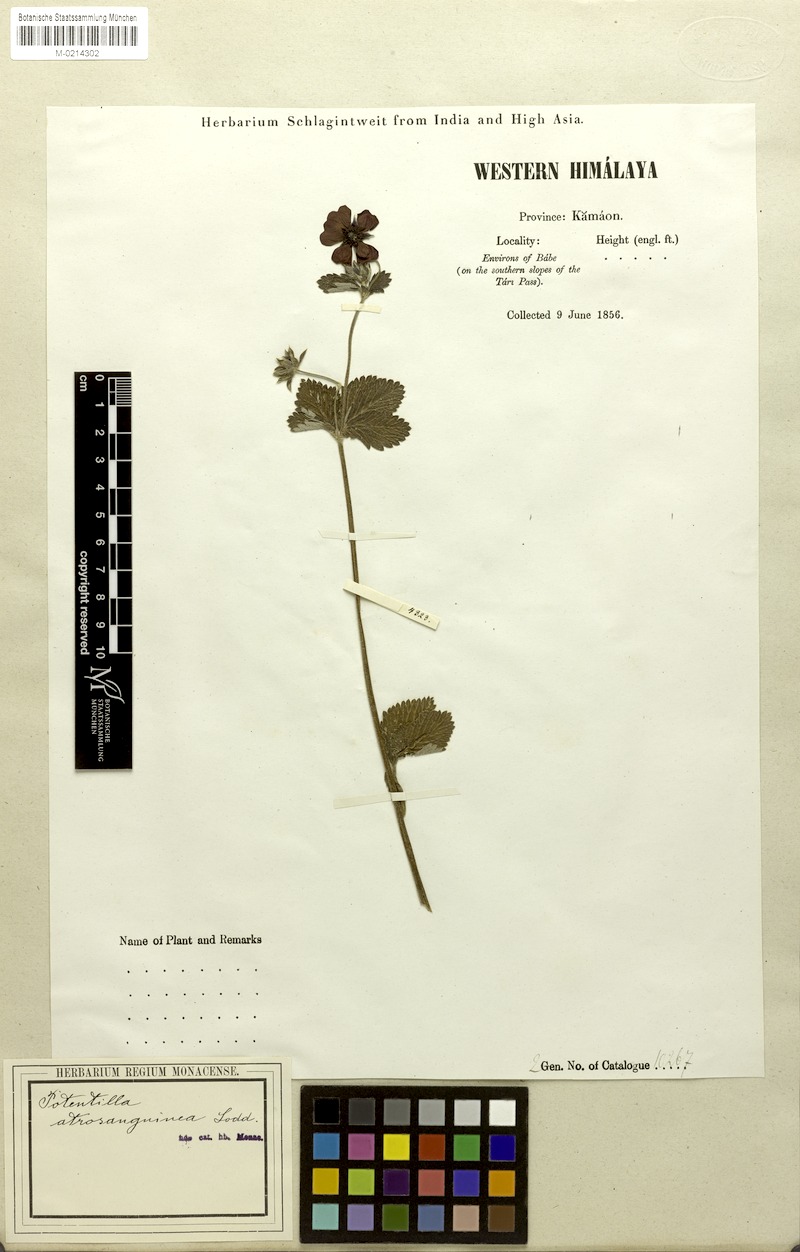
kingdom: Plantae
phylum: Tracheophyta
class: Magnoliopsida
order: Rosales
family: Rosaceae
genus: Potentilla
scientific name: Potentilla argyrophylla
